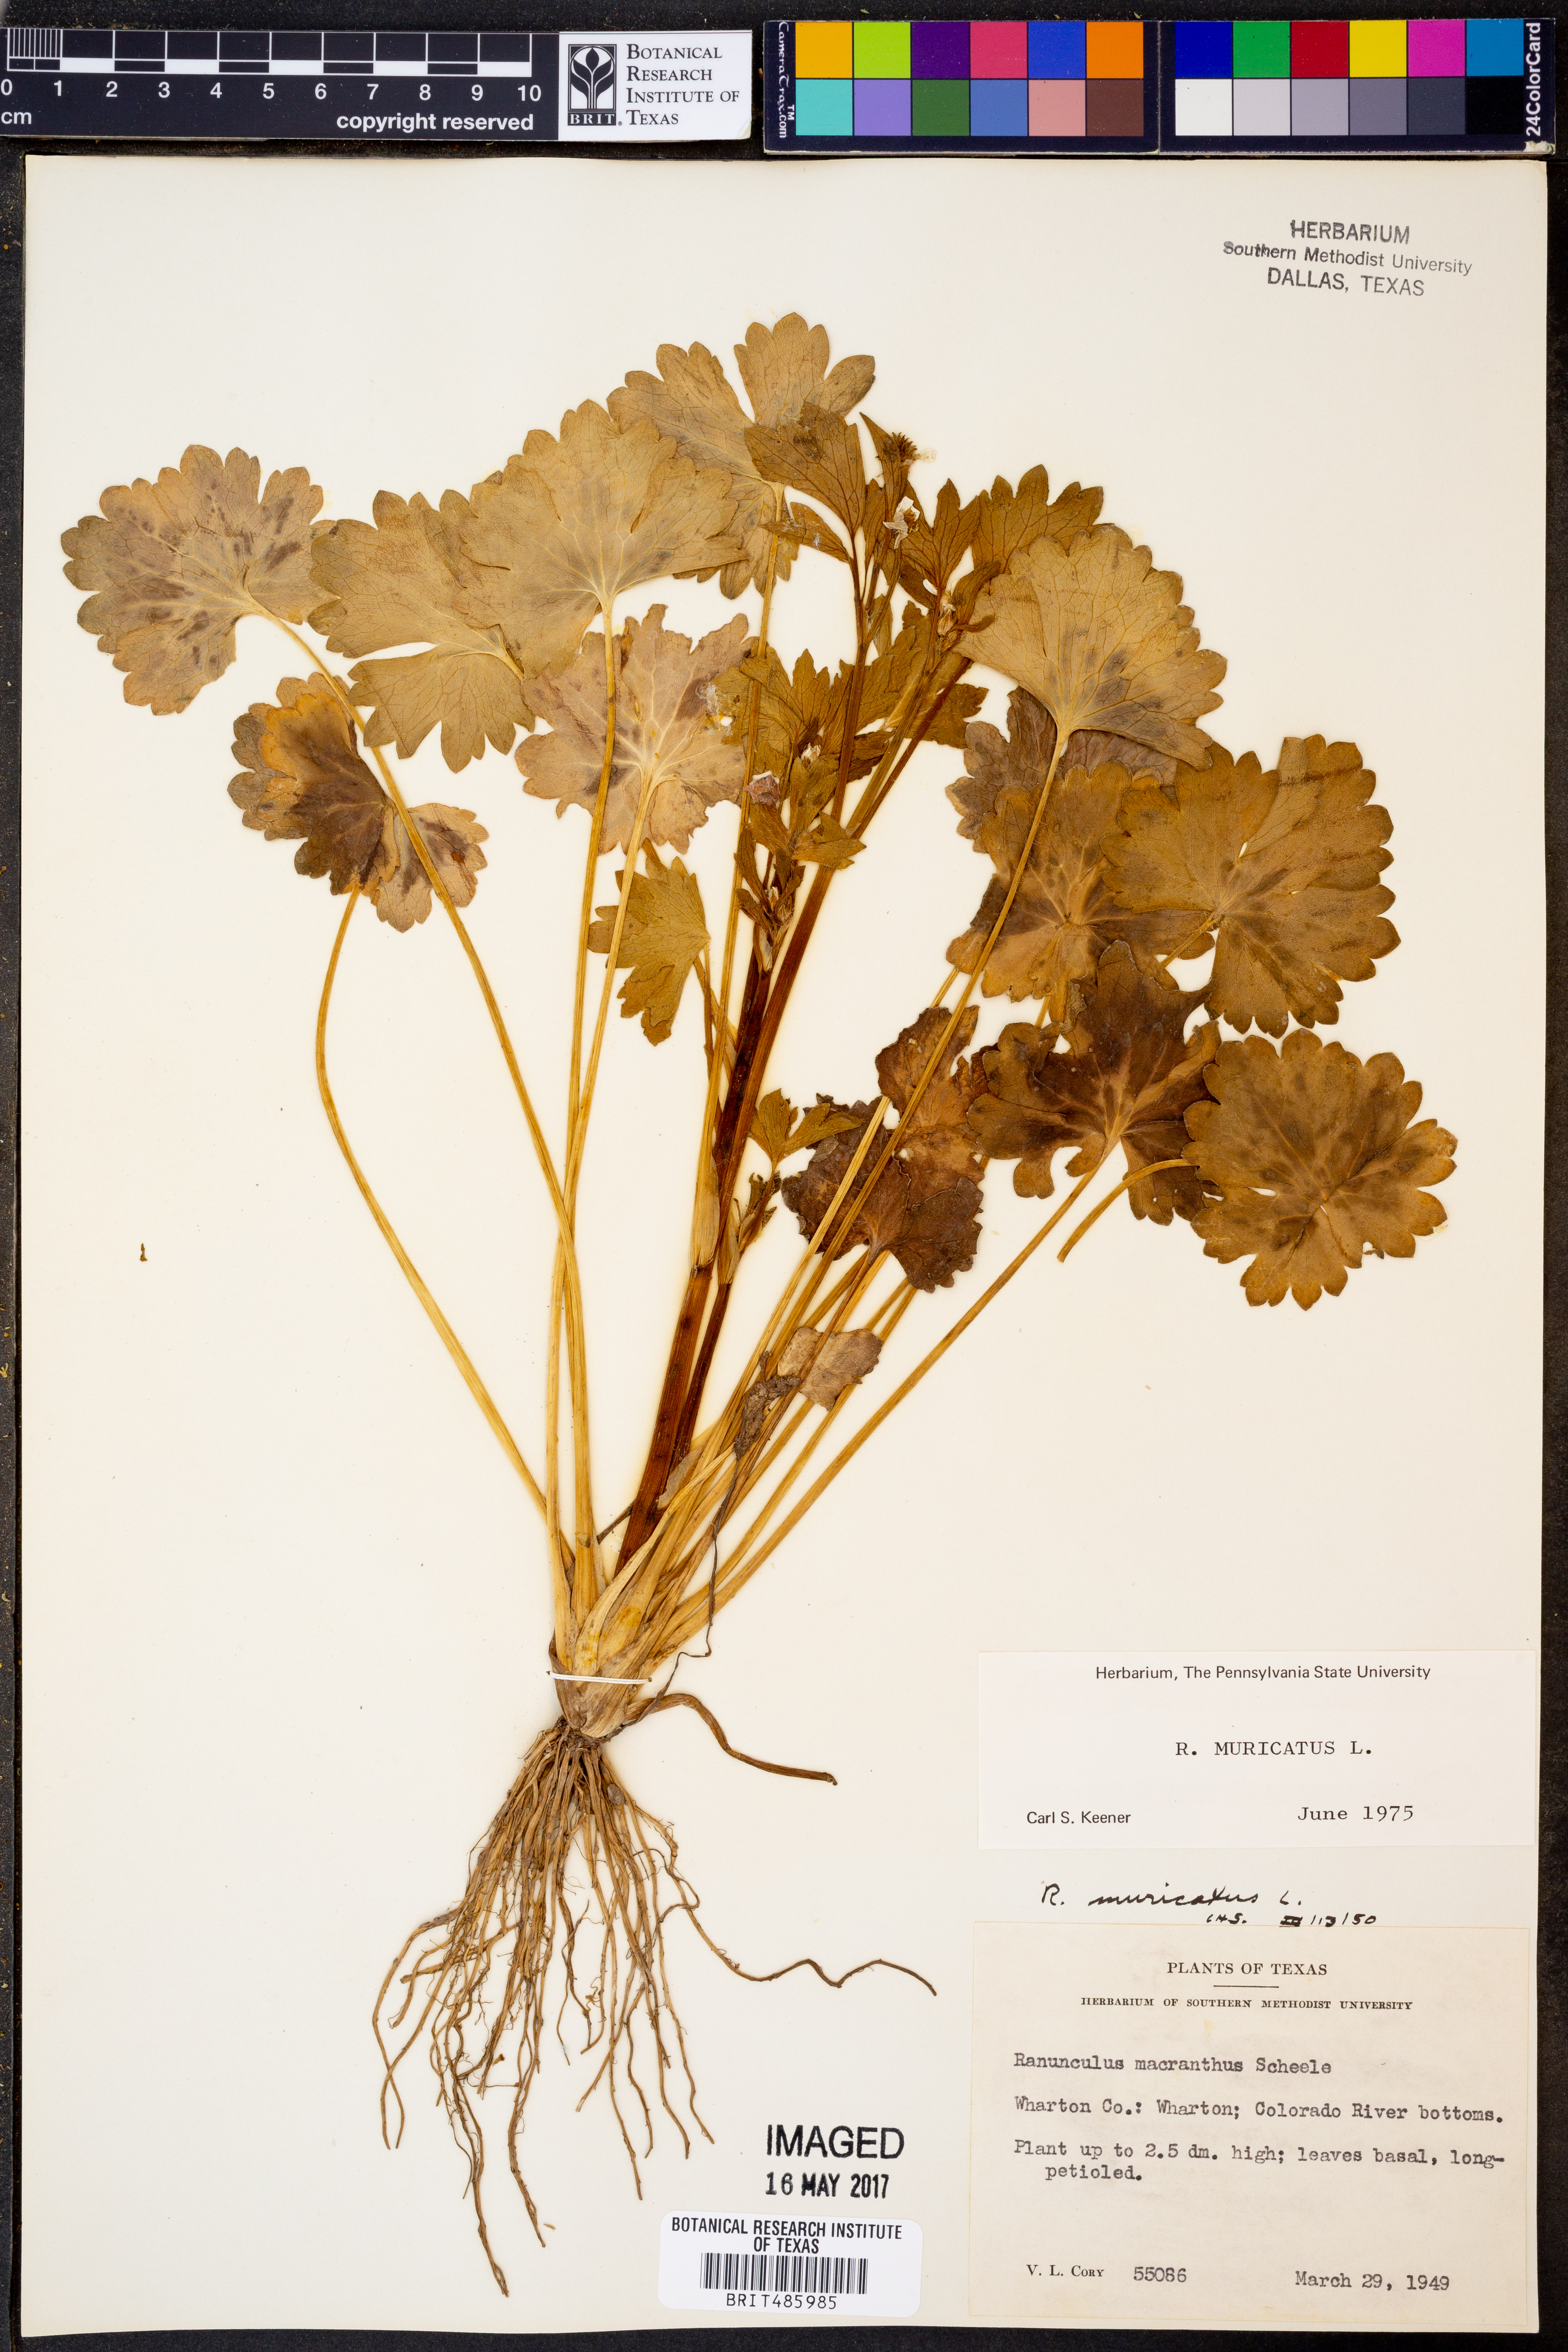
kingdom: Plantae
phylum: Tracheophyta
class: Magnoliopsida
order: Ranunculales
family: Ranunculaceae
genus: Ranunculus
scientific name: Ranunculus muricatus
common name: Rough-fruited buttercup
